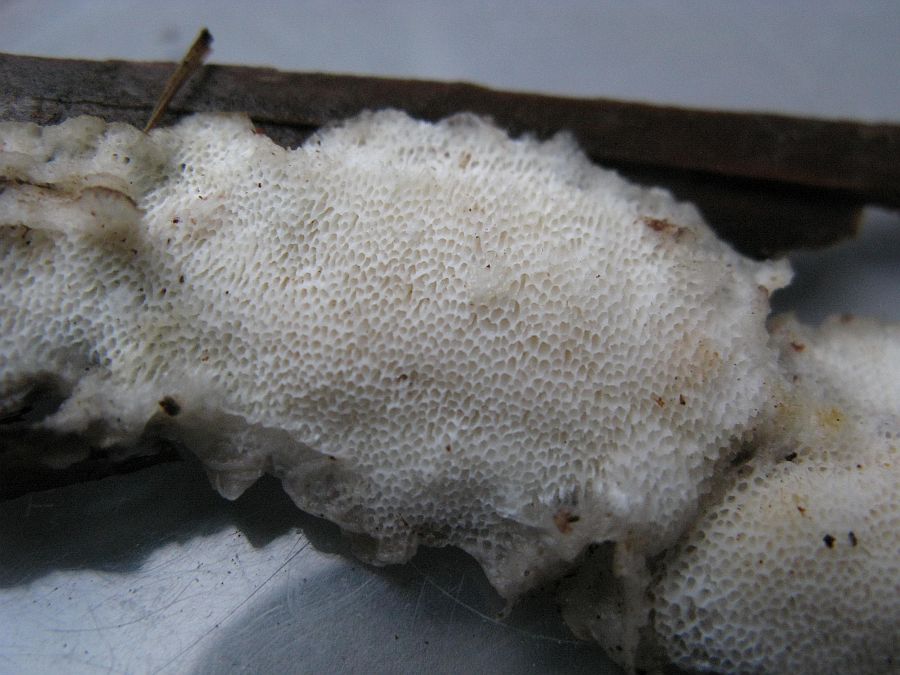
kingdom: Fungi
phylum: Basidiomycota
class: Agaricomycetes
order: Polyporales
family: Gelatoporiaceae
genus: Cinereomyces
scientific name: Cinereomyces lindbladii
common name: almindelig gråporesvamp
